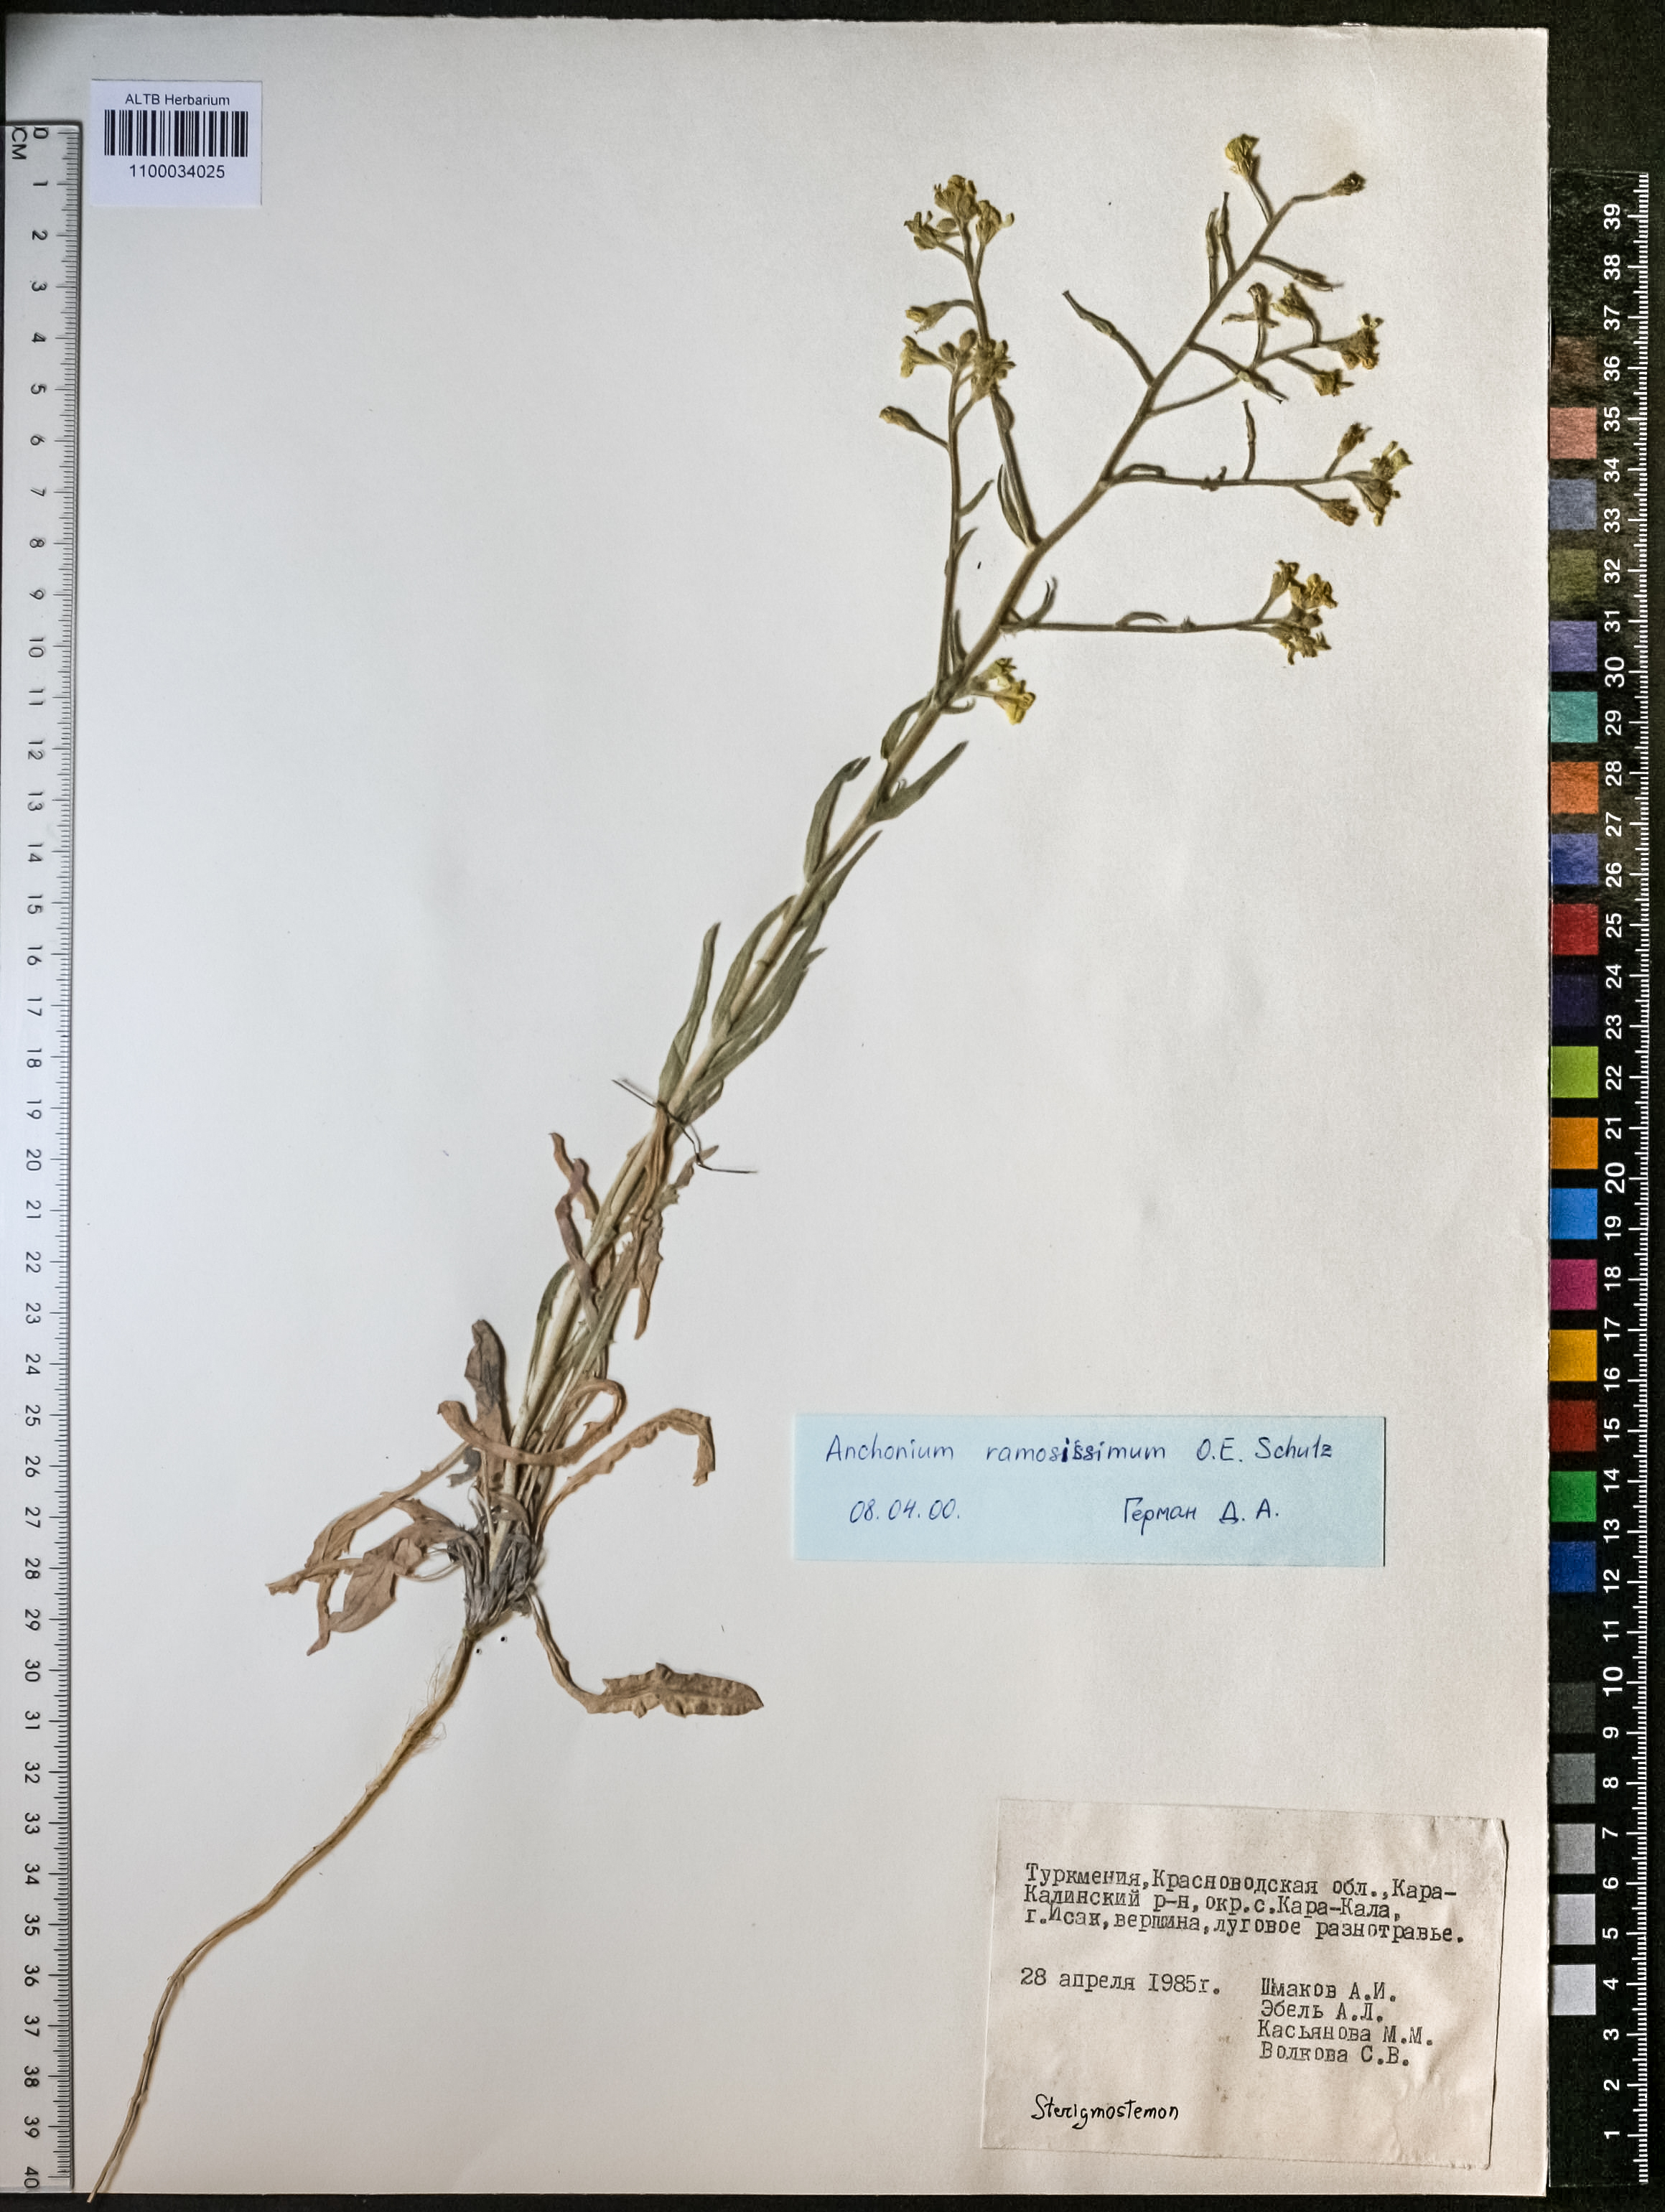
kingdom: Plantae
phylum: Tracheophyta
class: Magnoliopsida
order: Brassicales
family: Brassicaceae
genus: Anchonium
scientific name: Anchonium ramosissimumo
